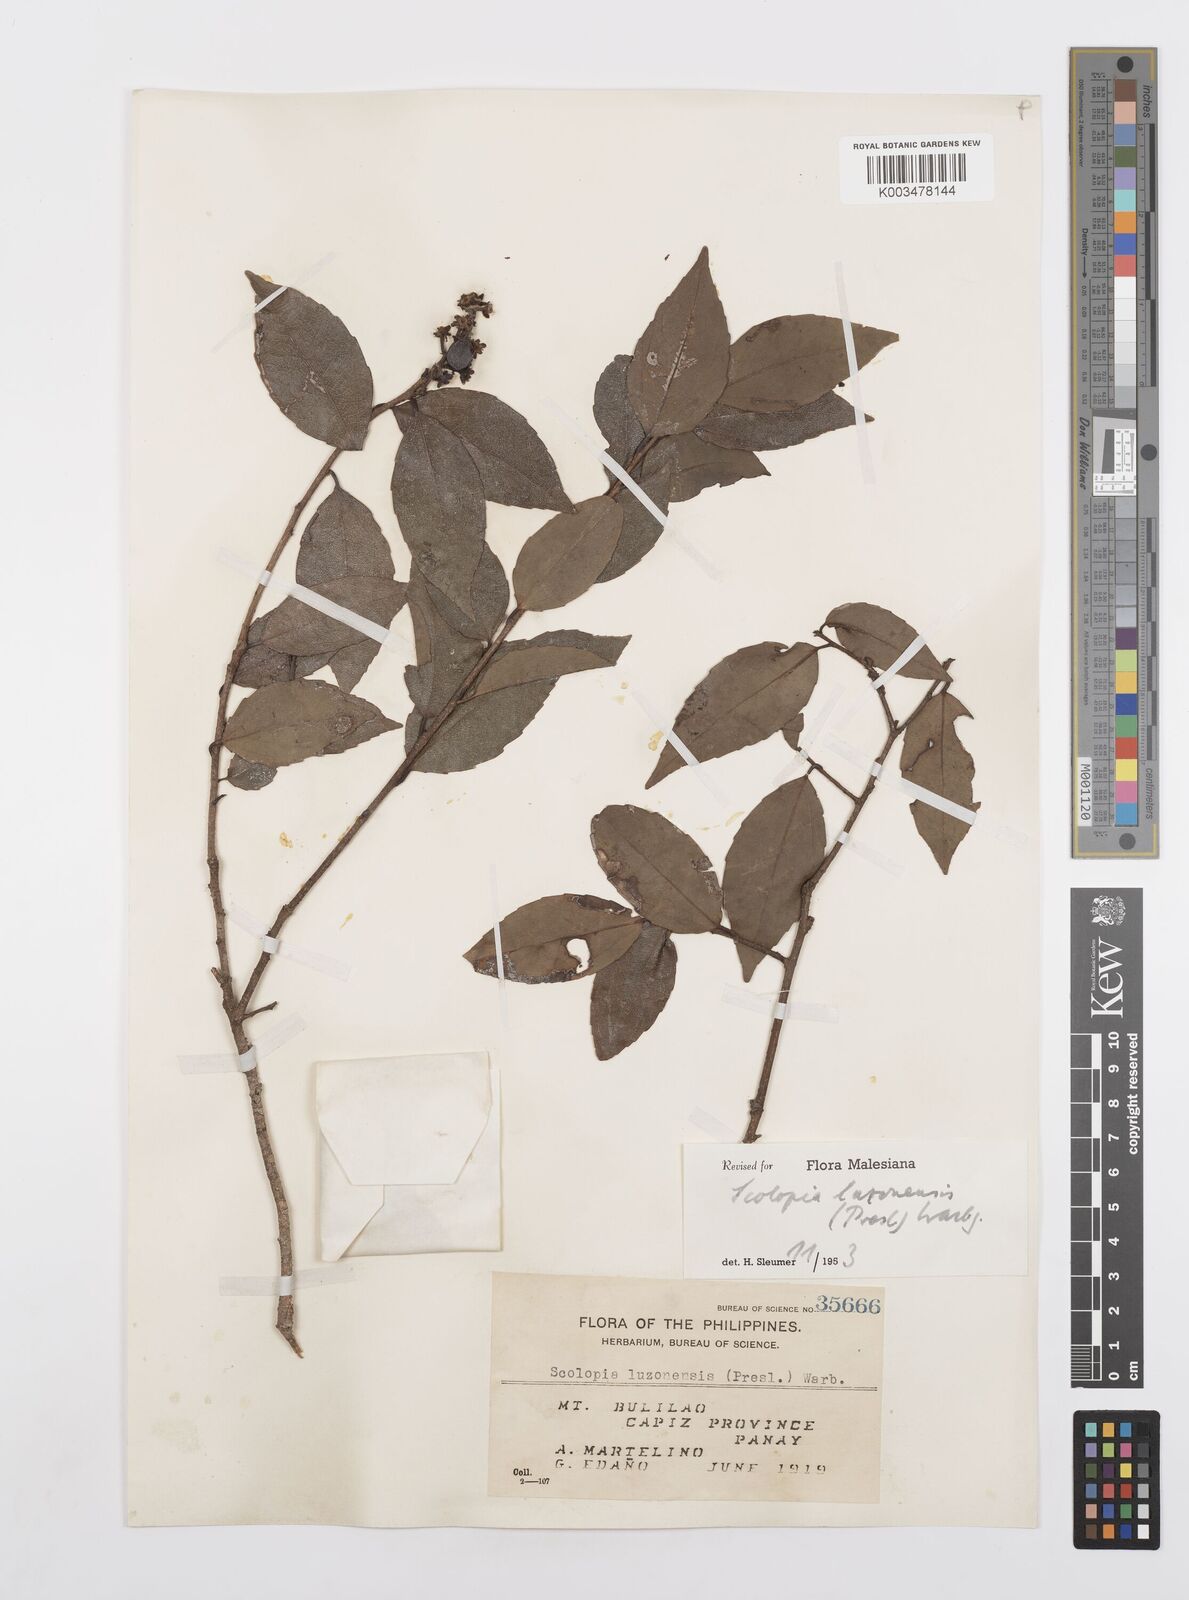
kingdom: Plantae
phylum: Tracheophyta
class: Magnoliopsida
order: Malpighiales
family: Salicaceae
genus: Scolopia
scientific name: Scolopia luzonensis
